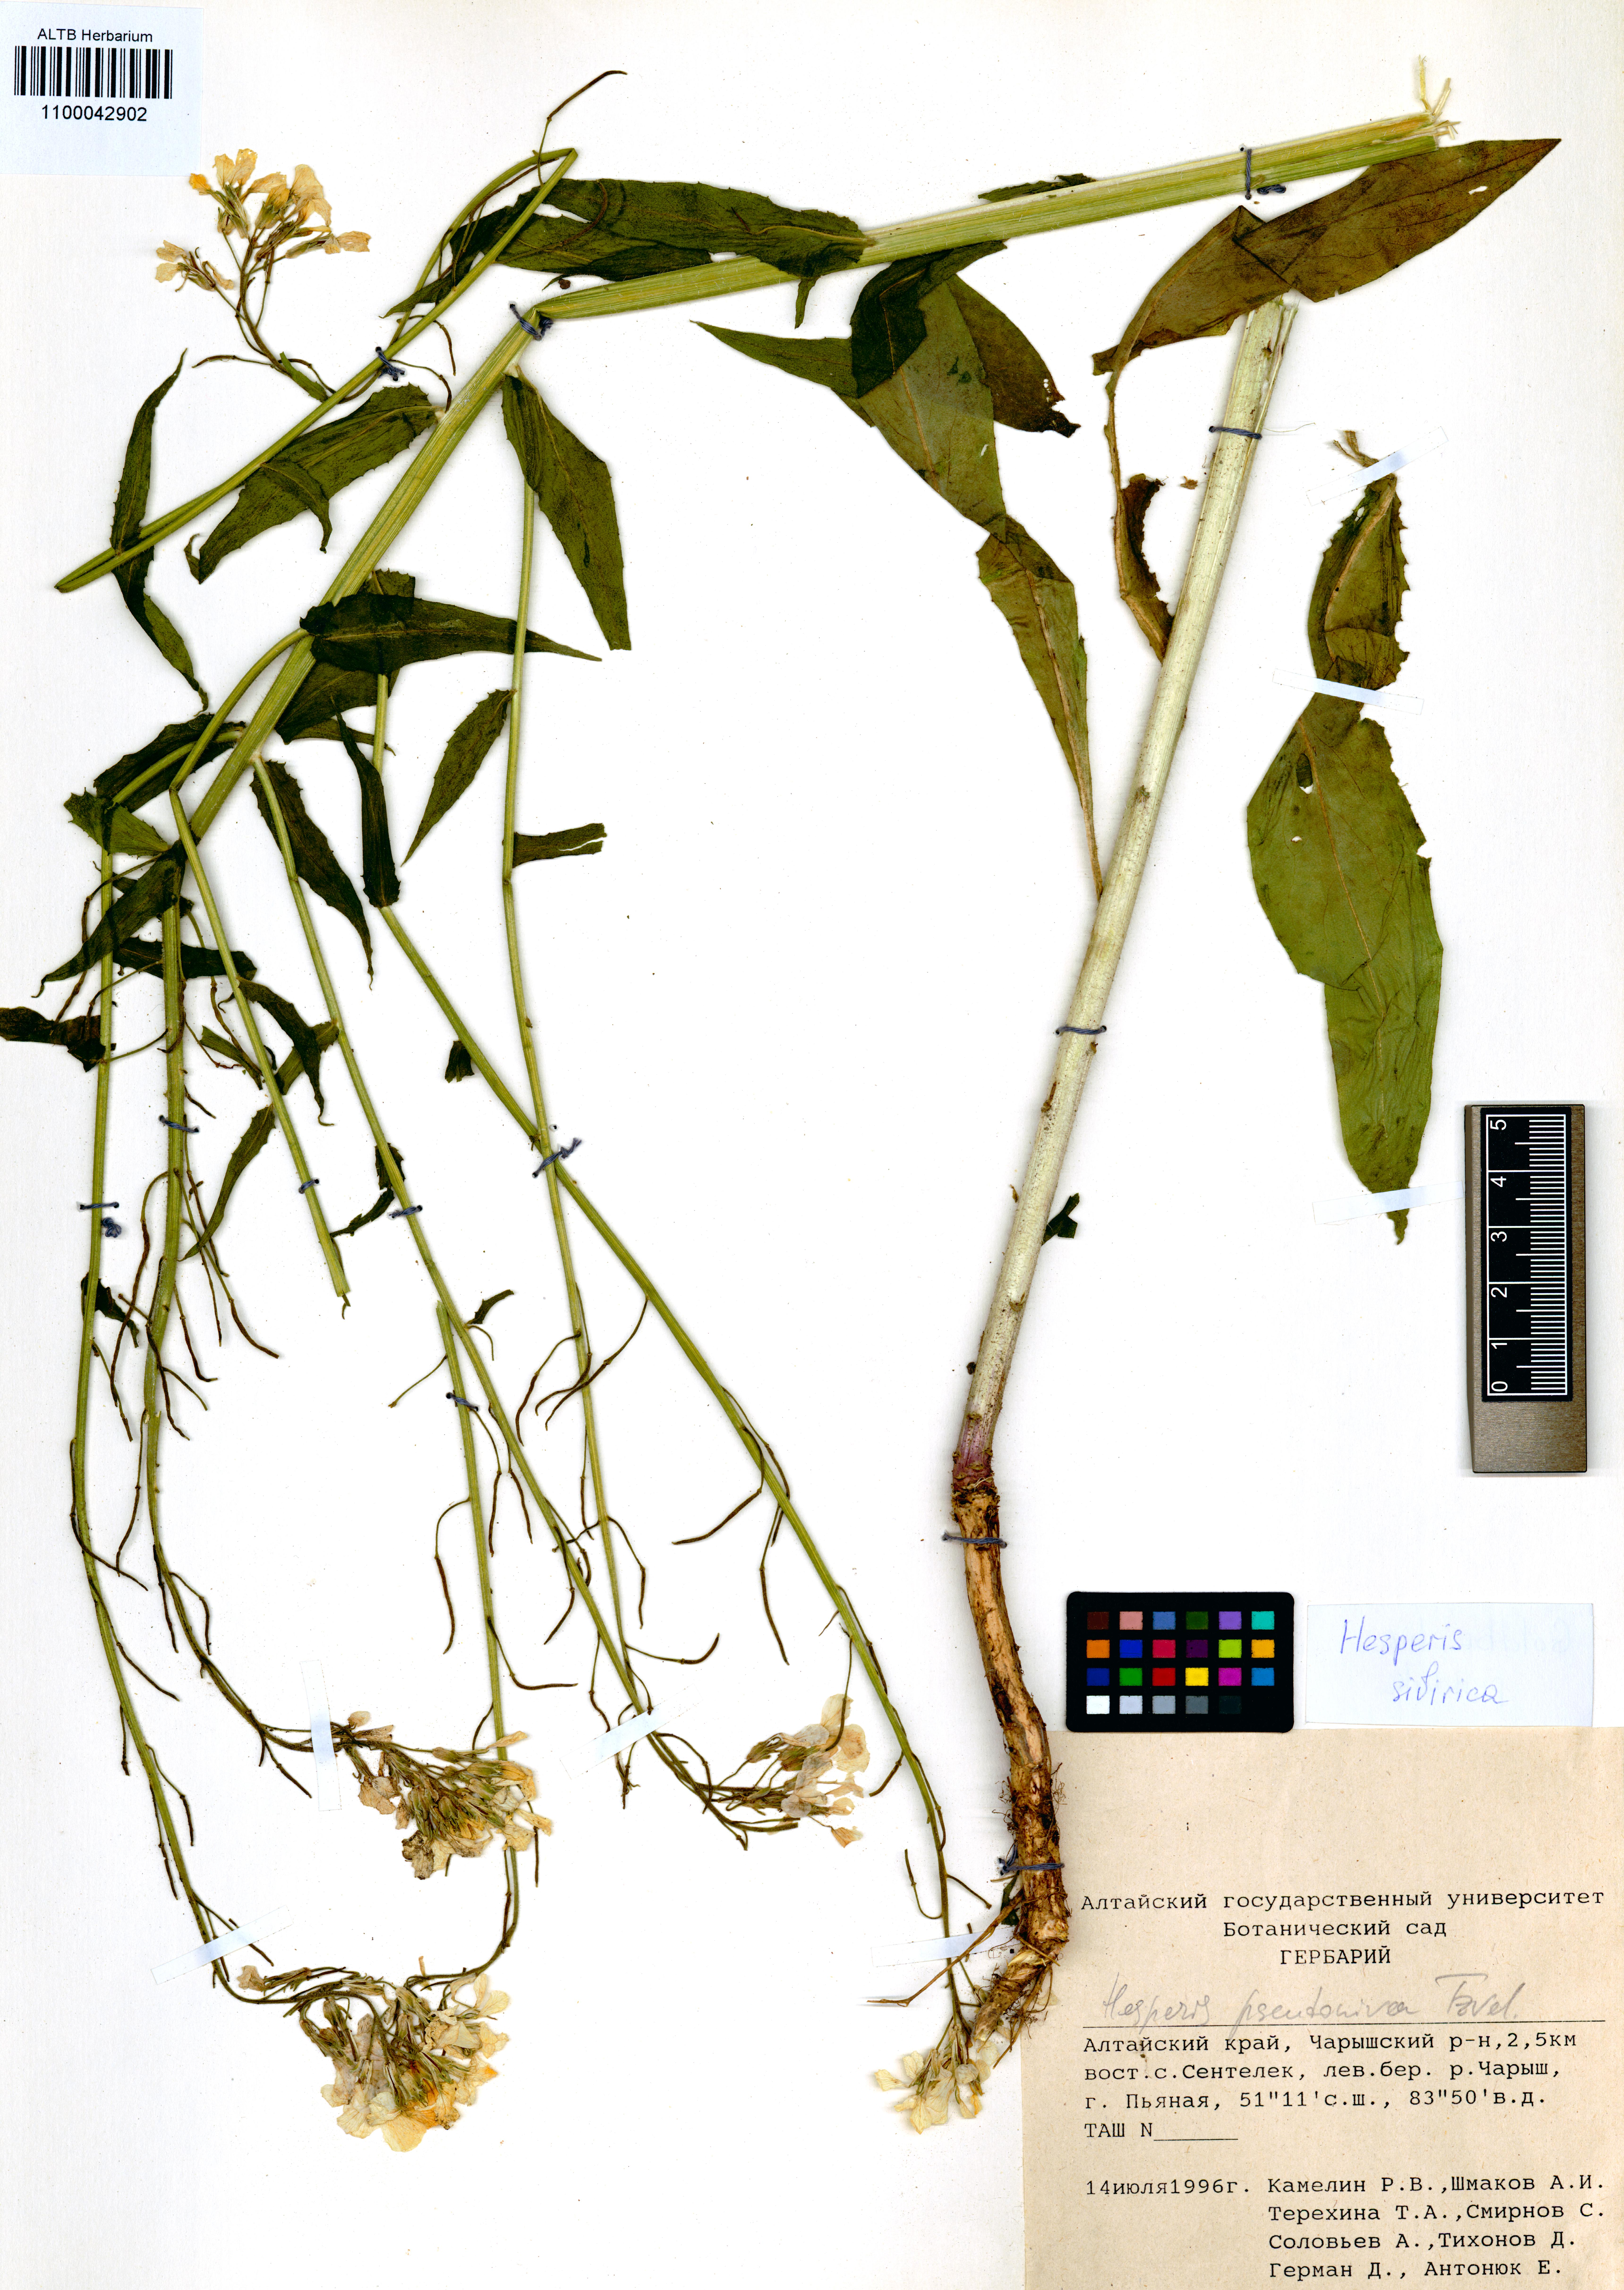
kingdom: Plantae
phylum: Tracheophyta
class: Magnoliopsida
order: Brassicales
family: Brassicaceae
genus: Hesperis
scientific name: Hesperis sibirica
